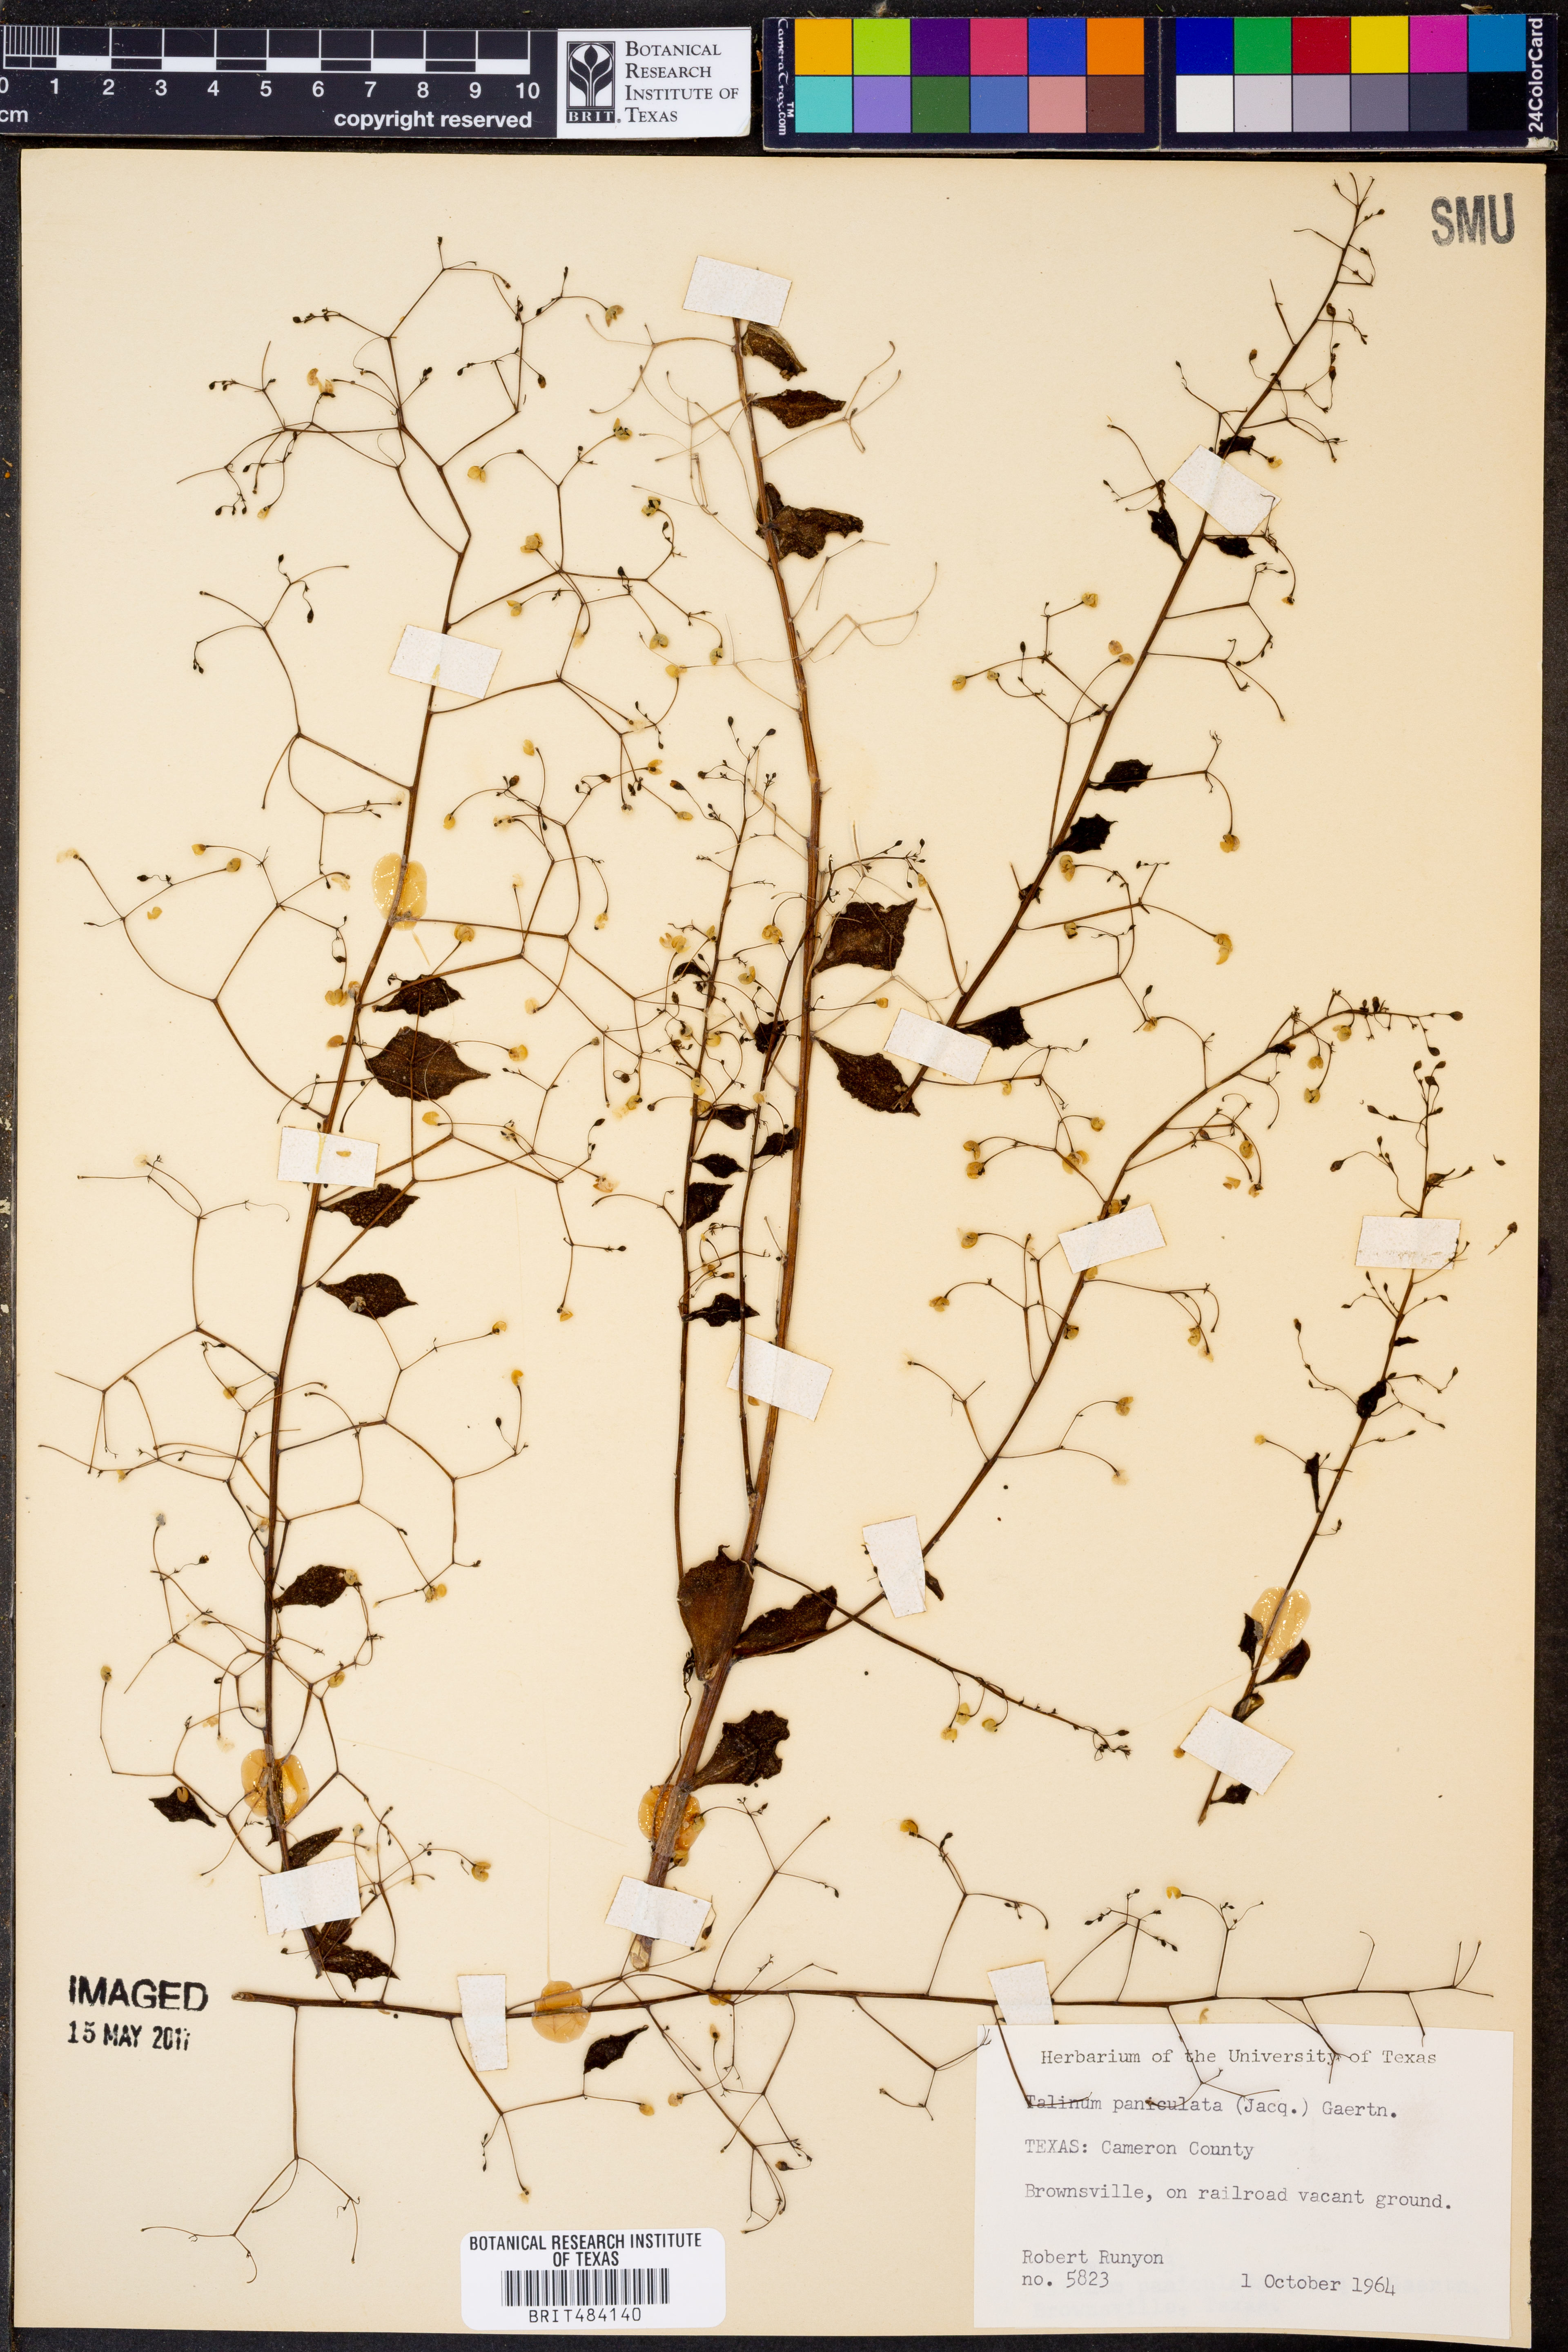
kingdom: Plantae
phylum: Tracheophyta
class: Magnoliopsida
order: Caryophyllales
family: Talinaceae
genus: Talinum
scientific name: Talinum paniculatum
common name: Jewels of opar
